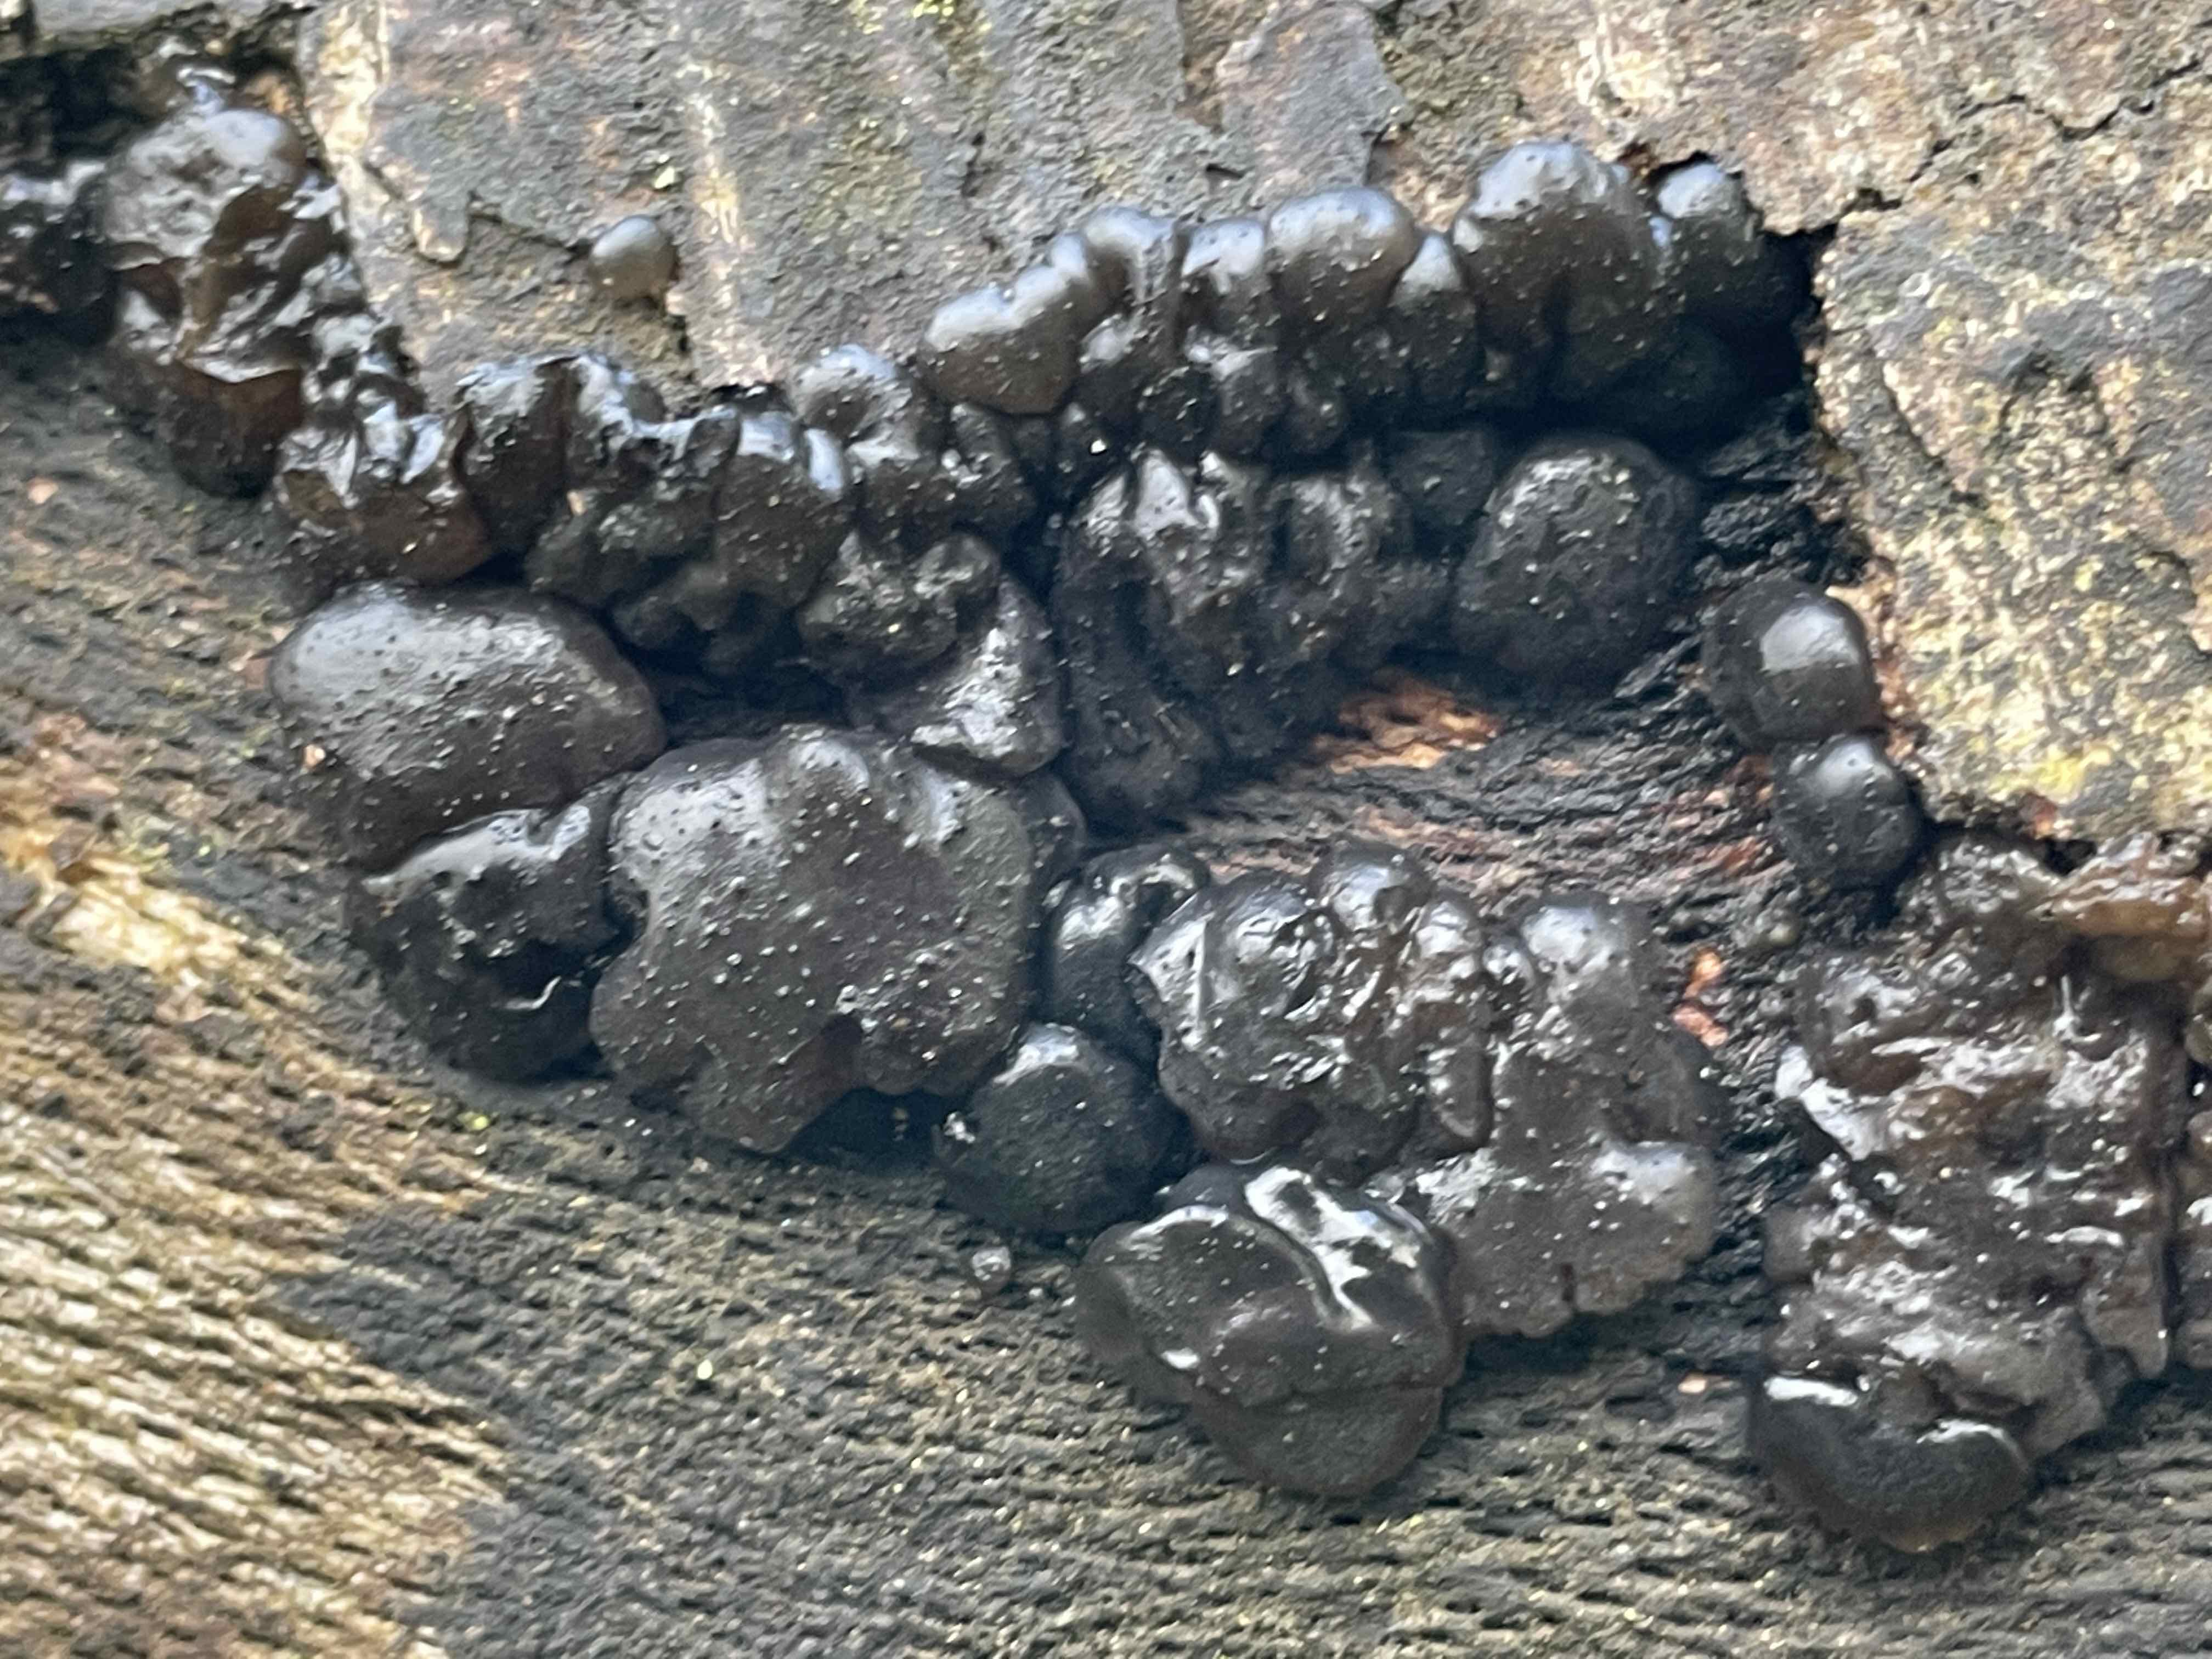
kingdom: Fungi
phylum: Basidiomycota
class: Agaricomycetes
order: Auriculariales
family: Auriculariaceae
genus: Exidia
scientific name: Exidia nigricans
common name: almindelig bævretop
